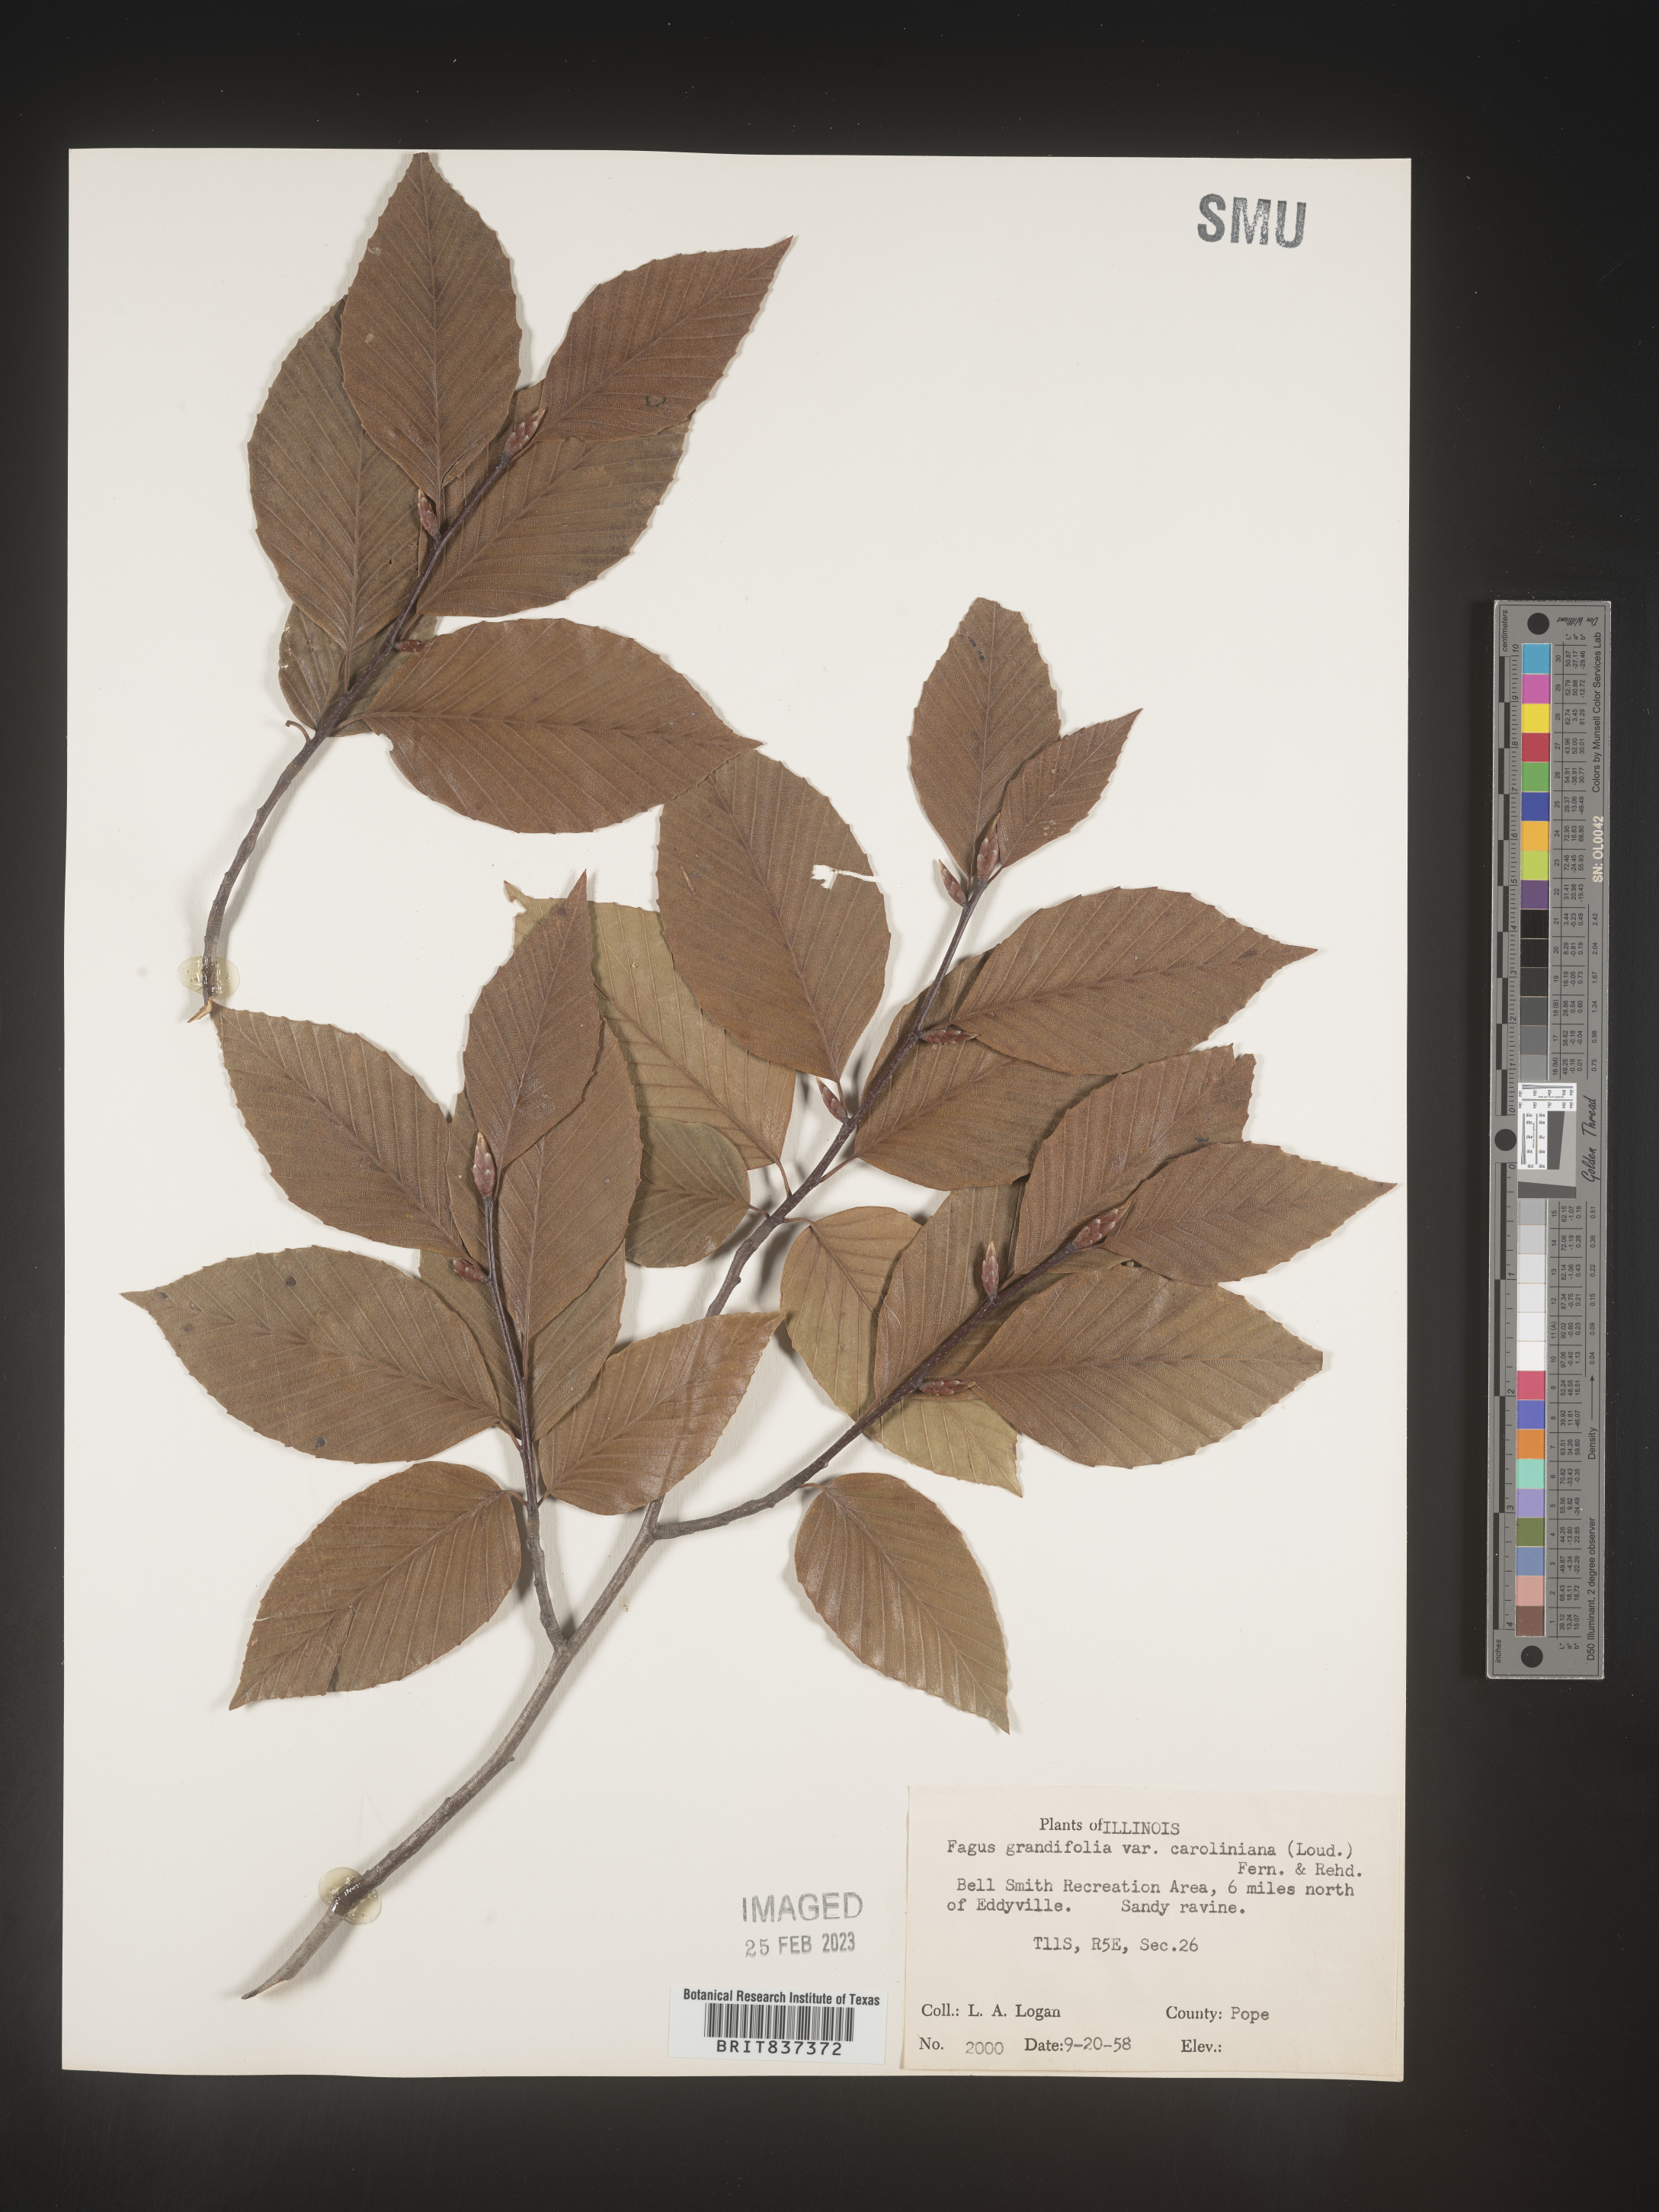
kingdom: Plantae
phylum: Tracheophyta
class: Magnoliopsida
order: Fagales
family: Fagaceae
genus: Fagus
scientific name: Fagus grandifolia
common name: American beech
